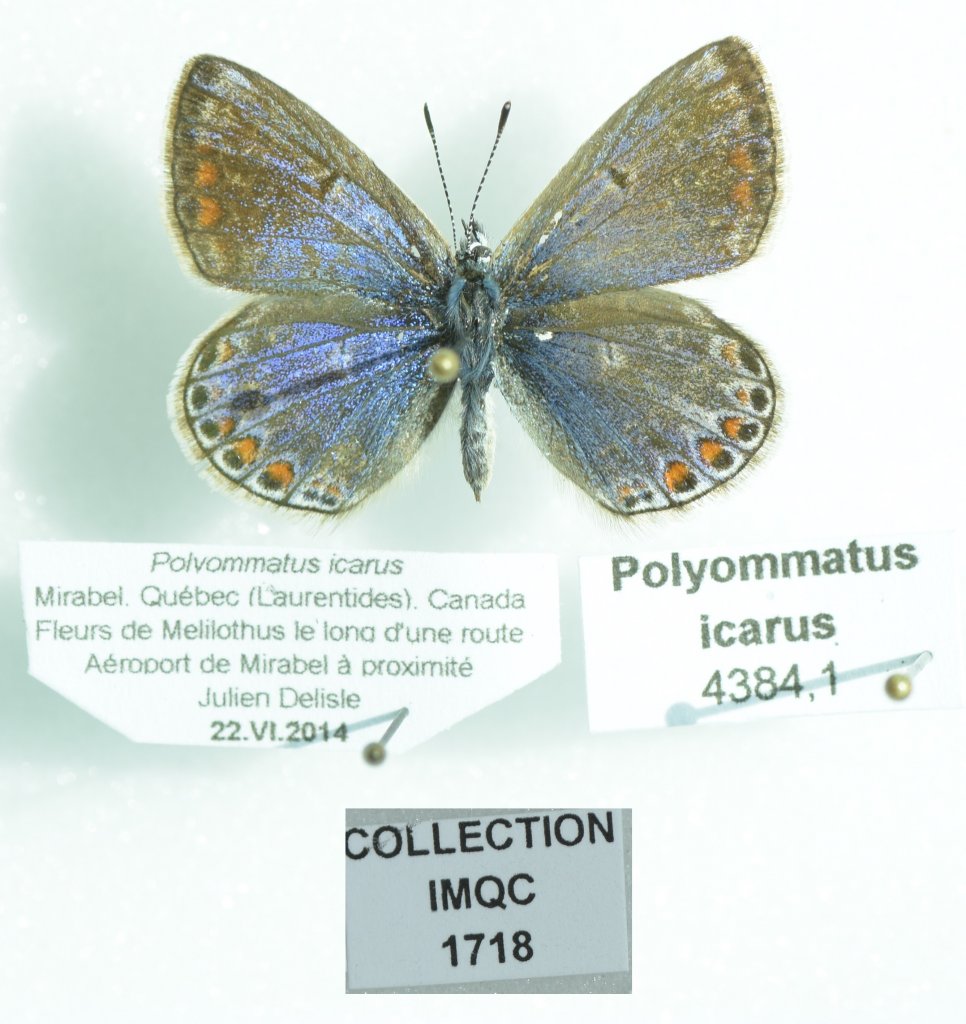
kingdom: Animalia
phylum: Arthropoda
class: Insecta
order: Lepidoptera
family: Lycaenidae
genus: Polyommatus
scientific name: Polyommatus icarus
